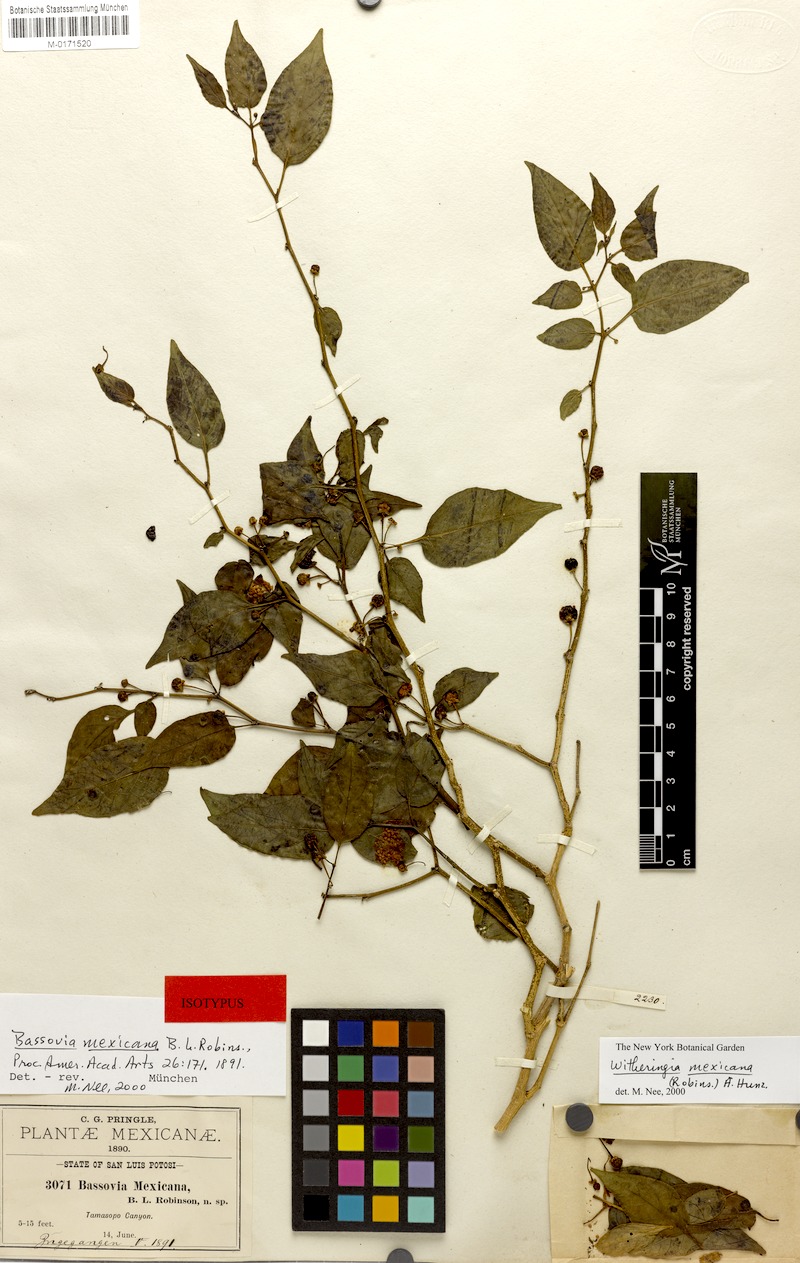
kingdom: Plantae
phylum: Tracheophyta
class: Magnoliopsida
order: Solanales
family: Solanaceae
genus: Witheringia
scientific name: Witheringia mexicana
